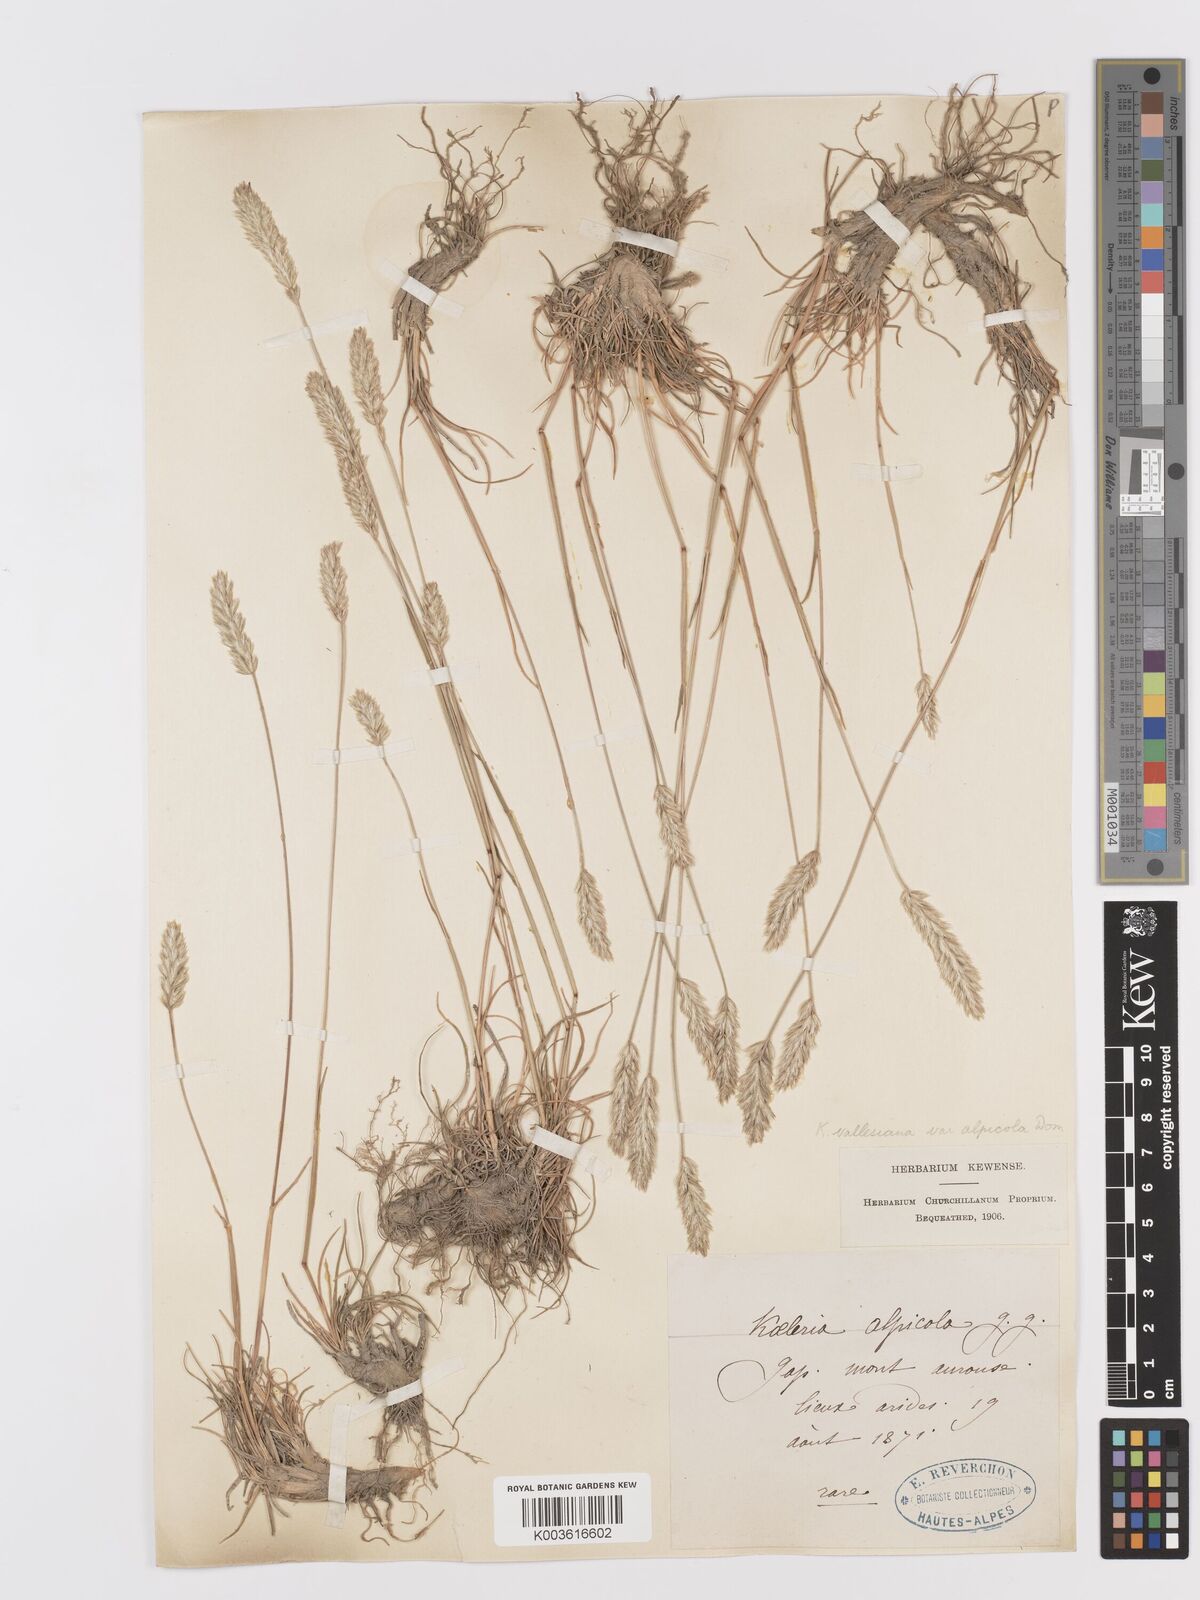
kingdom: Plantae
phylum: Tracheophyta
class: Liliopsida
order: Poales
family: Poaceae
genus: Koeleria
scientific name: Koeleria vallesiana
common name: Somerset hair-grass
